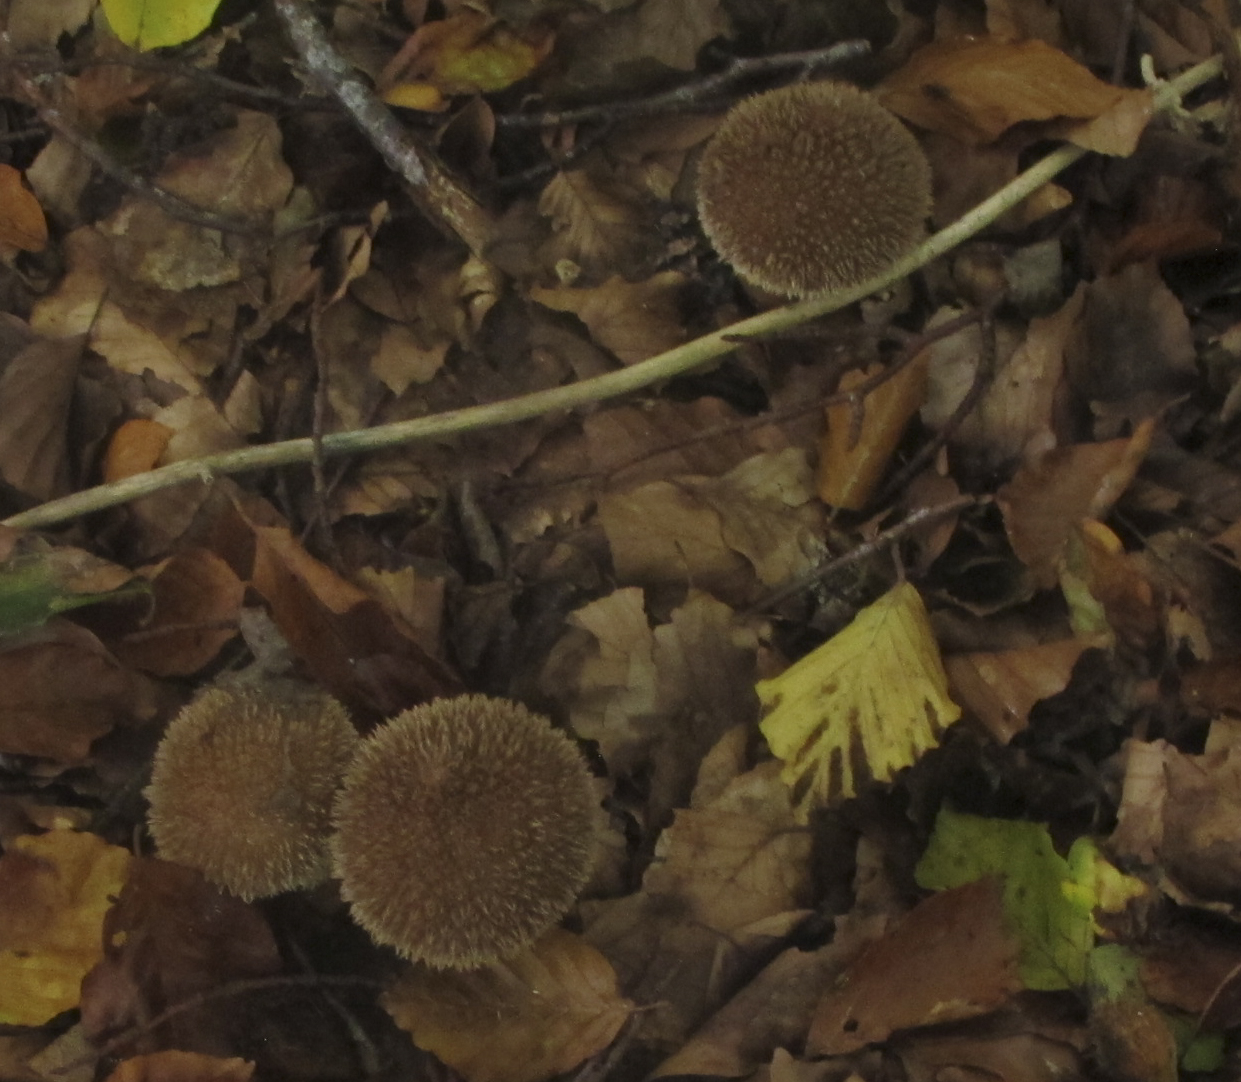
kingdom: Fungi
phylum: Basidiomycota
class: Agaricomycetes
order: Agaricales
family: Lycoperdaceae
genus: Lycoperdon
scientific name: Lycoperdon echinatum
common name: pindsvine-støvbold
